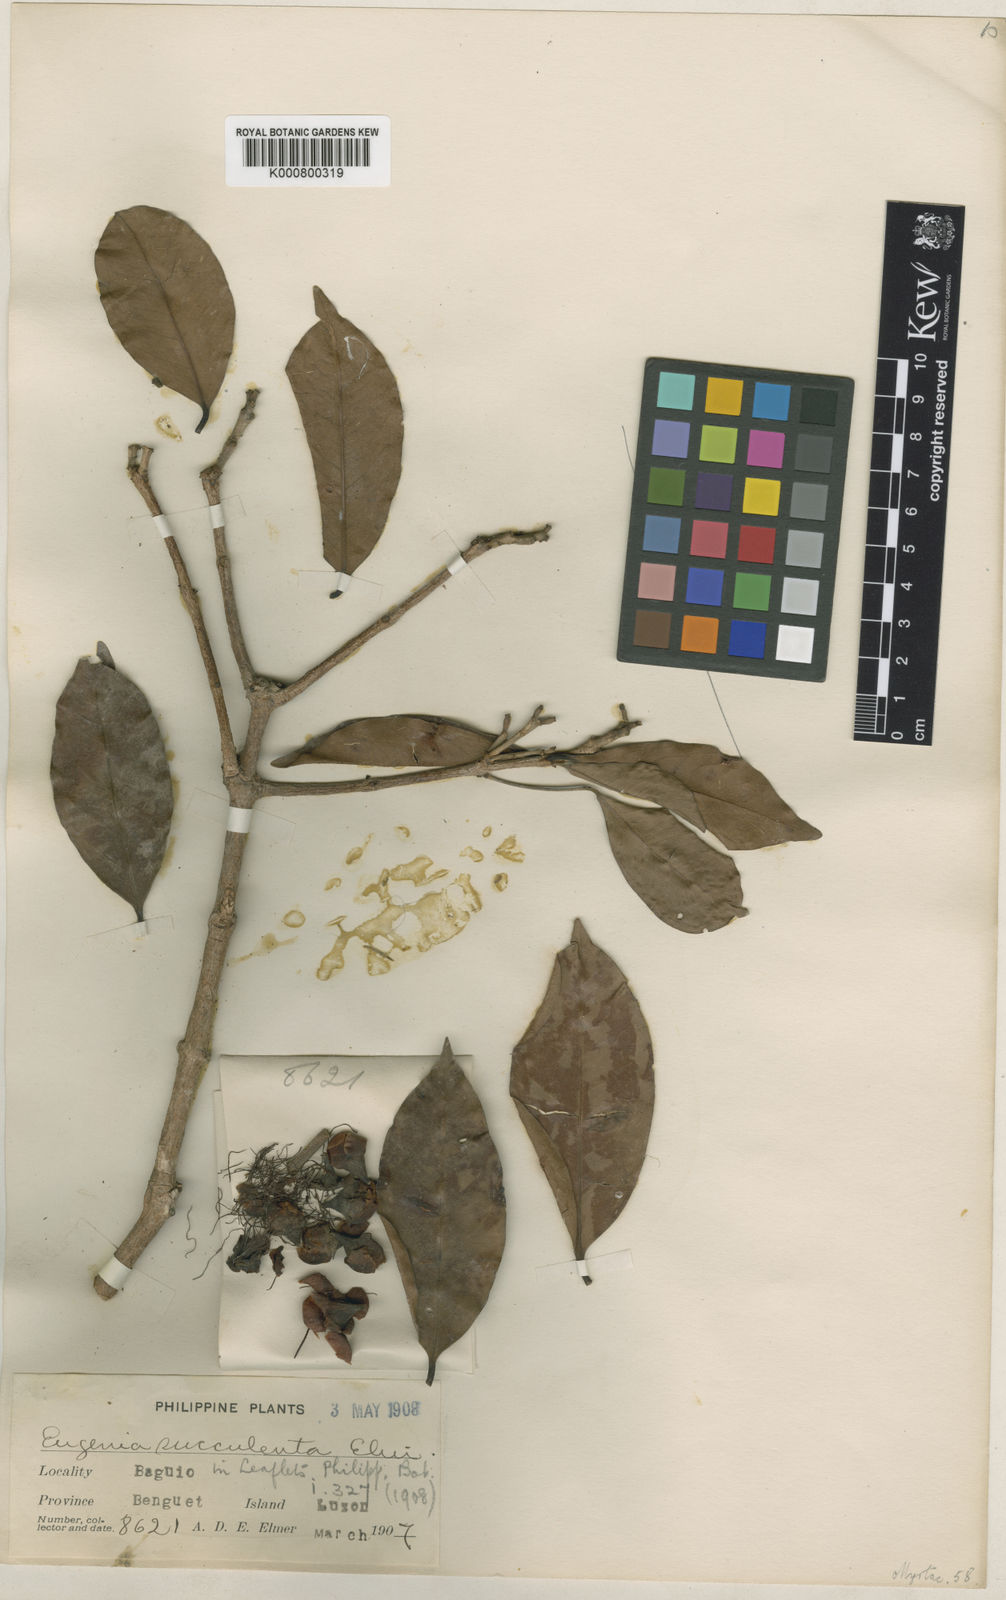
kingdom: Plantae
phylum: Tracheophyta
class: Magnoliopsida
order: Myrtales
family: Myrtaceae
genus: Syzygium
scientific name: Syzygium robertii
